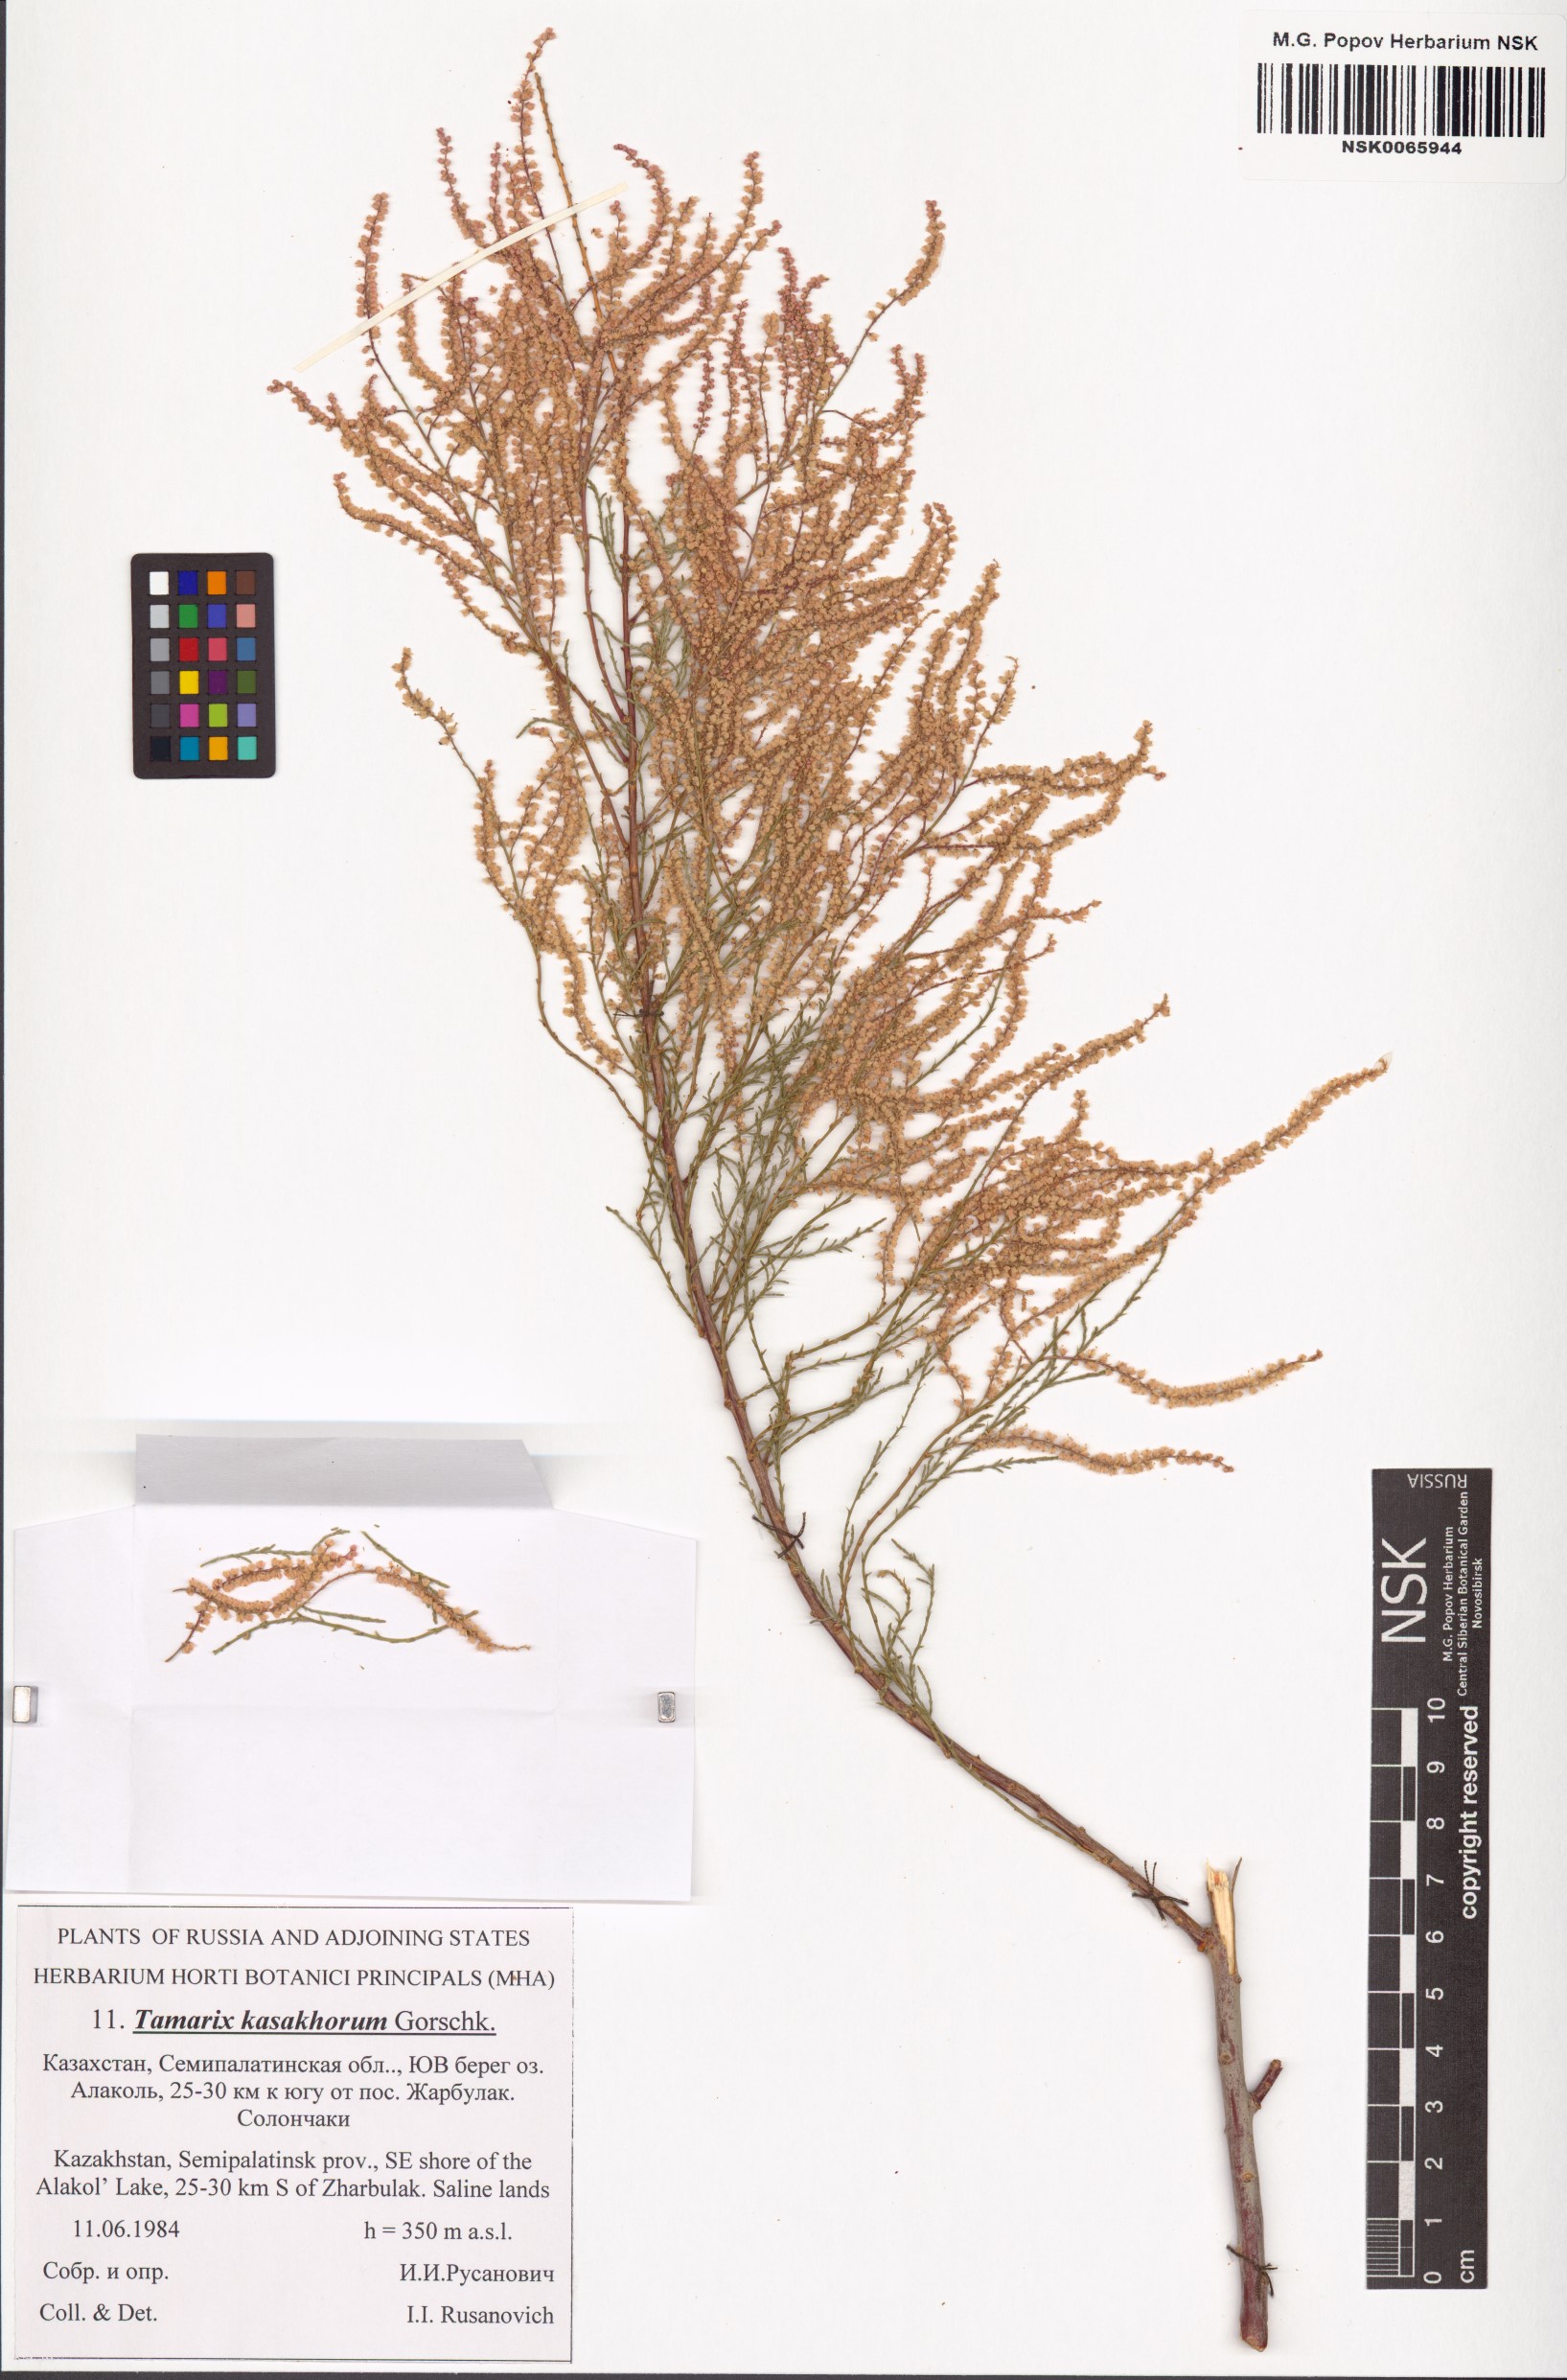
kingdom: Plantae
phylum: Tracheophyta
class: Magnoliopsida
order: Caryophyllales
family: Tamaricaceae
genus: Tamarix
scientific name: Tamarix kasahorum
